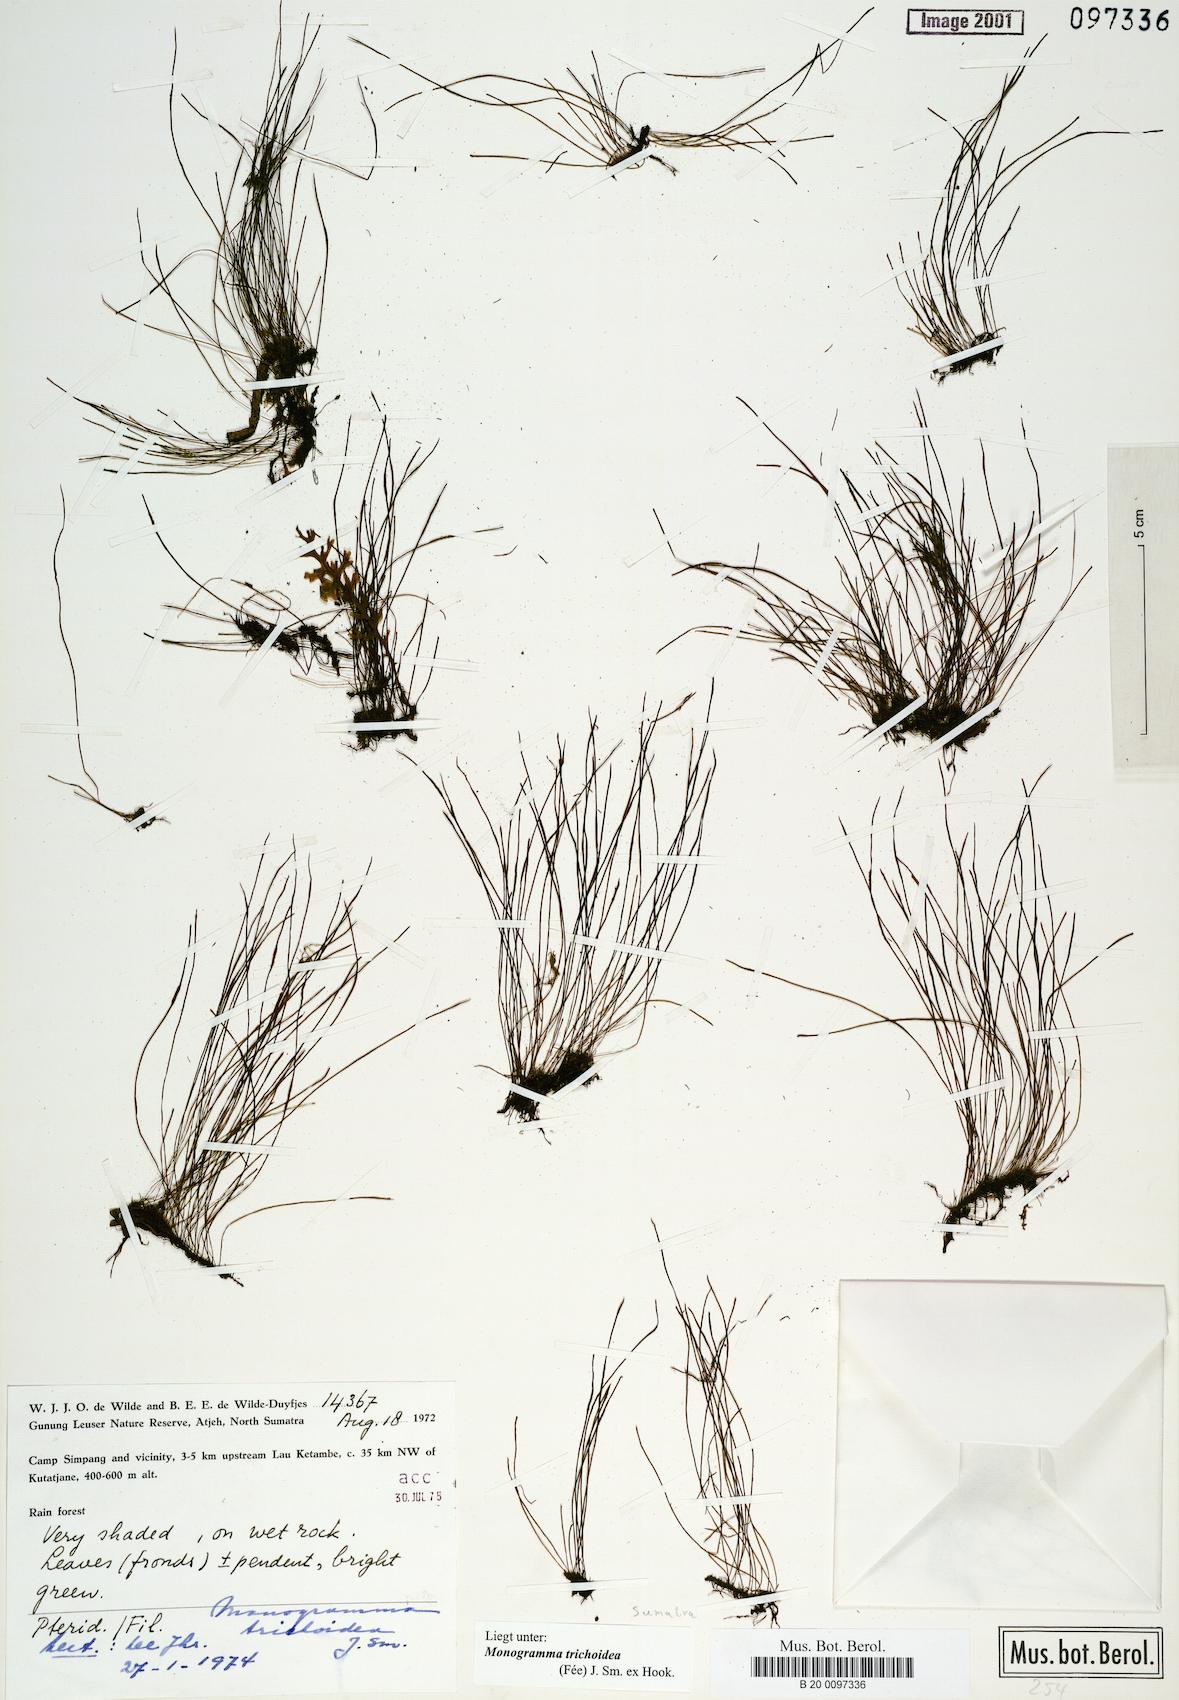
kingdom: Plantae
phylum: Tracheophyta
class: Polypodiopsida
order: Polypodiales
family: Pteridaceae
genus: Vaginularia
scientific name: Vaginularia trichoidea
